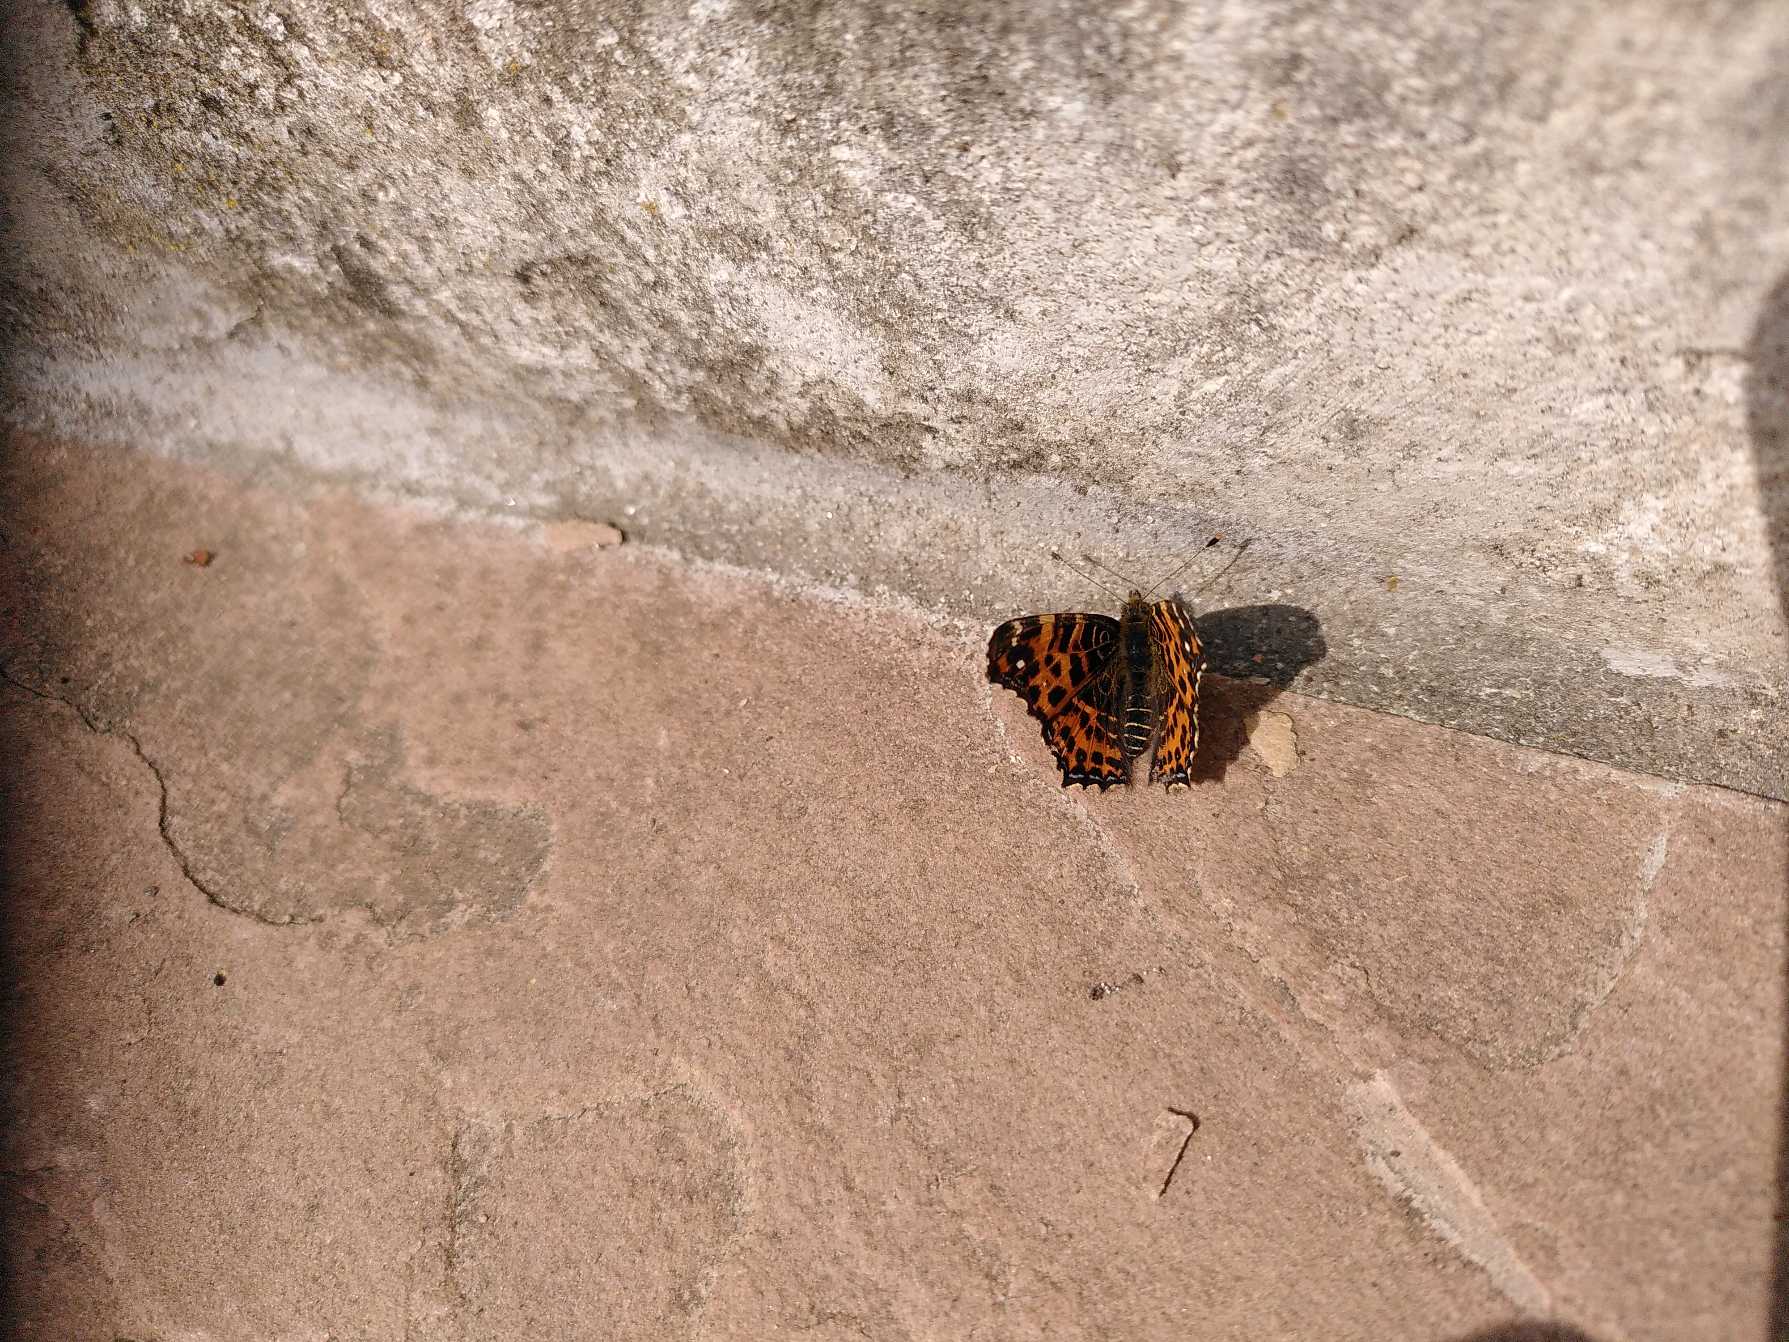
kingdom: Animalia
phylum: Arthropoda
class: Insecta
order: Lepidoptera
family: Nymphalidae
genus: Araschnia
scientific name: Araschnia levana
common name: Nældesommerfugl
